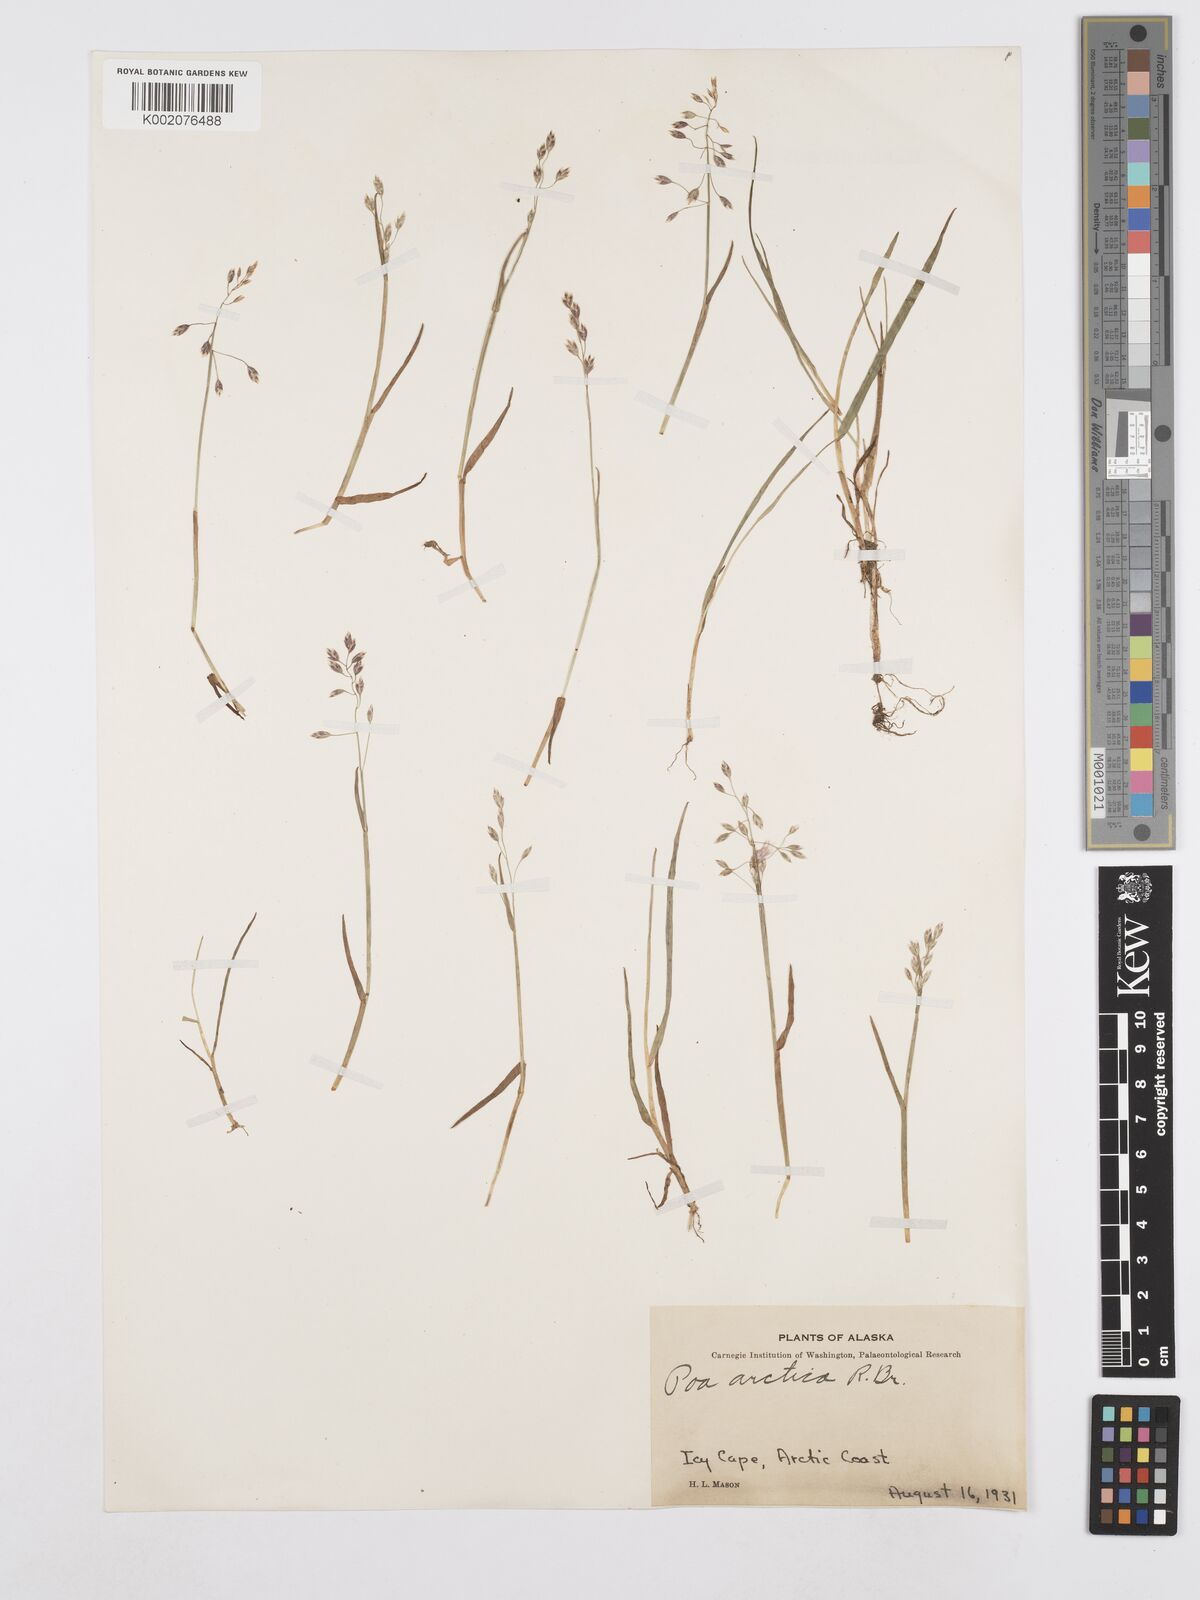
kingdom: Plantae
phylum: Tracheophyta
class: Liliopsida
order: Poales
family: Poaceae
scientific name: Poaceae
